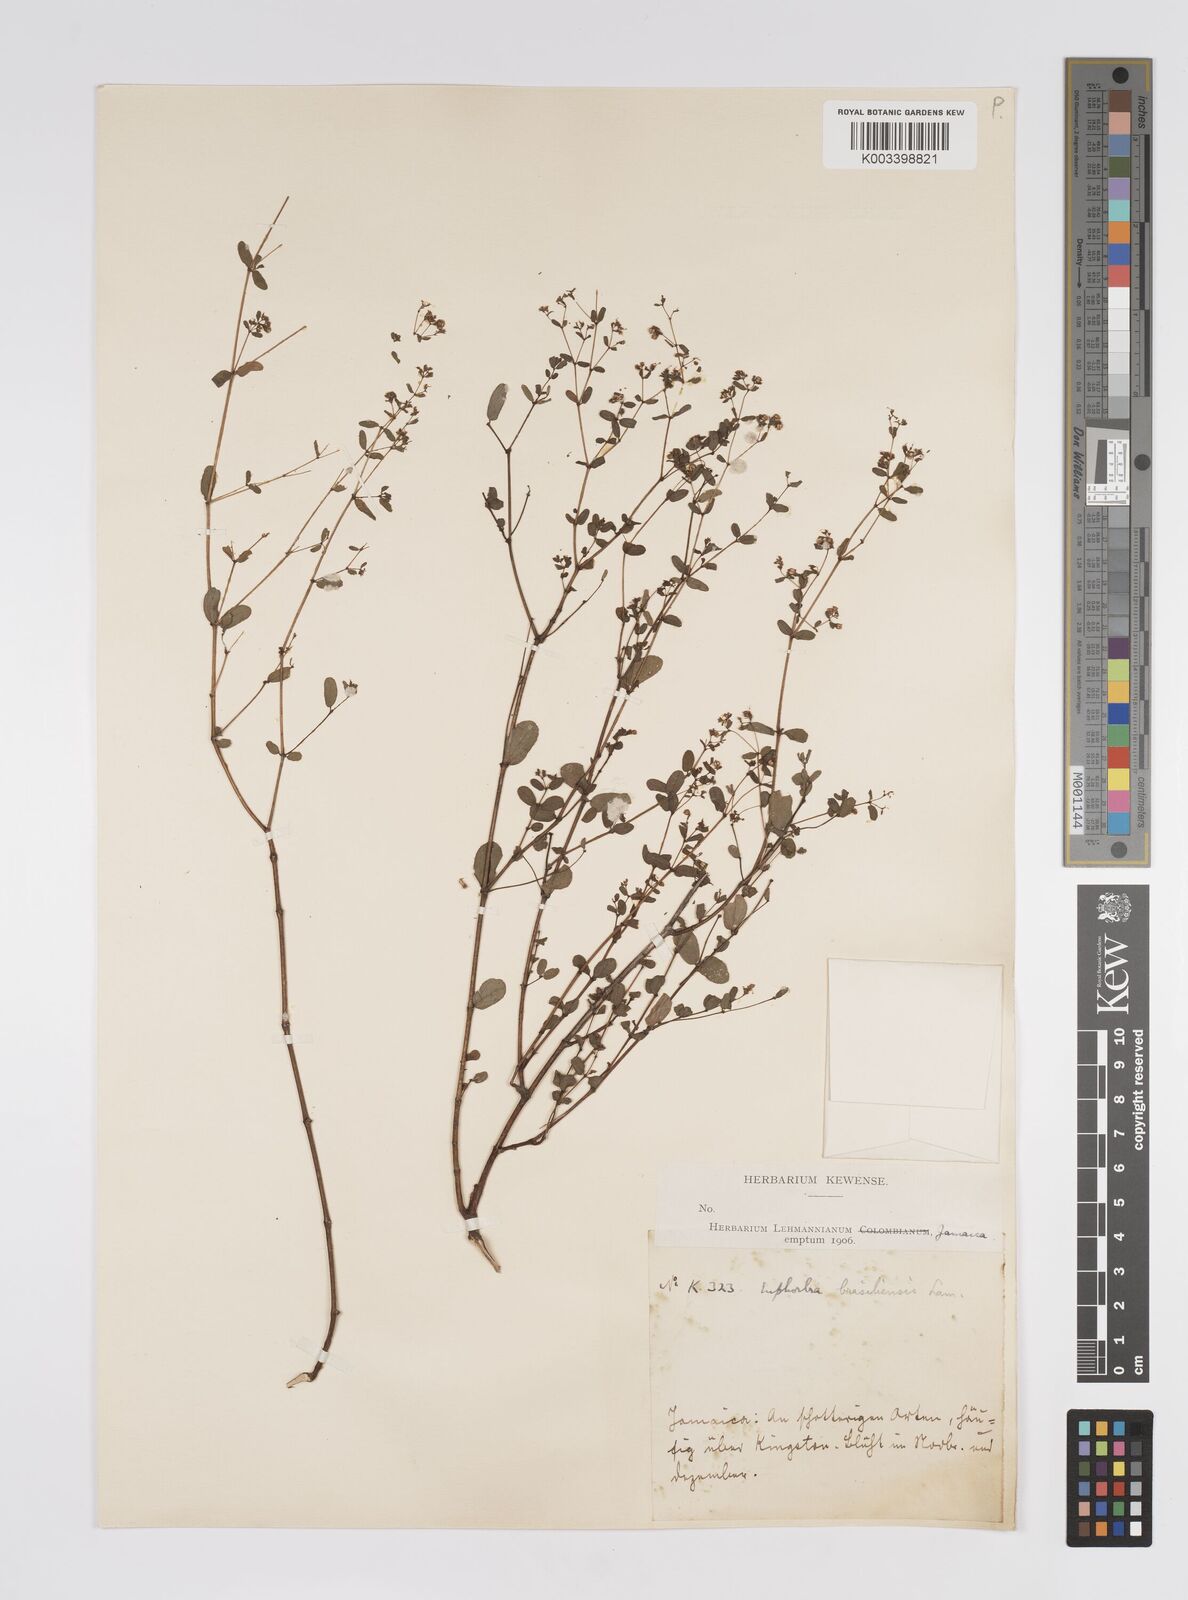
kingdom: Plantae
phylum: Tracheophyta
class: Magnoliopsida
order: Malpighiales
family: Euphorbiaceae
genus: Euphorbia
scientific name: Euphorbia hyssopifolia
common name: Hyssopleaf sandmat
